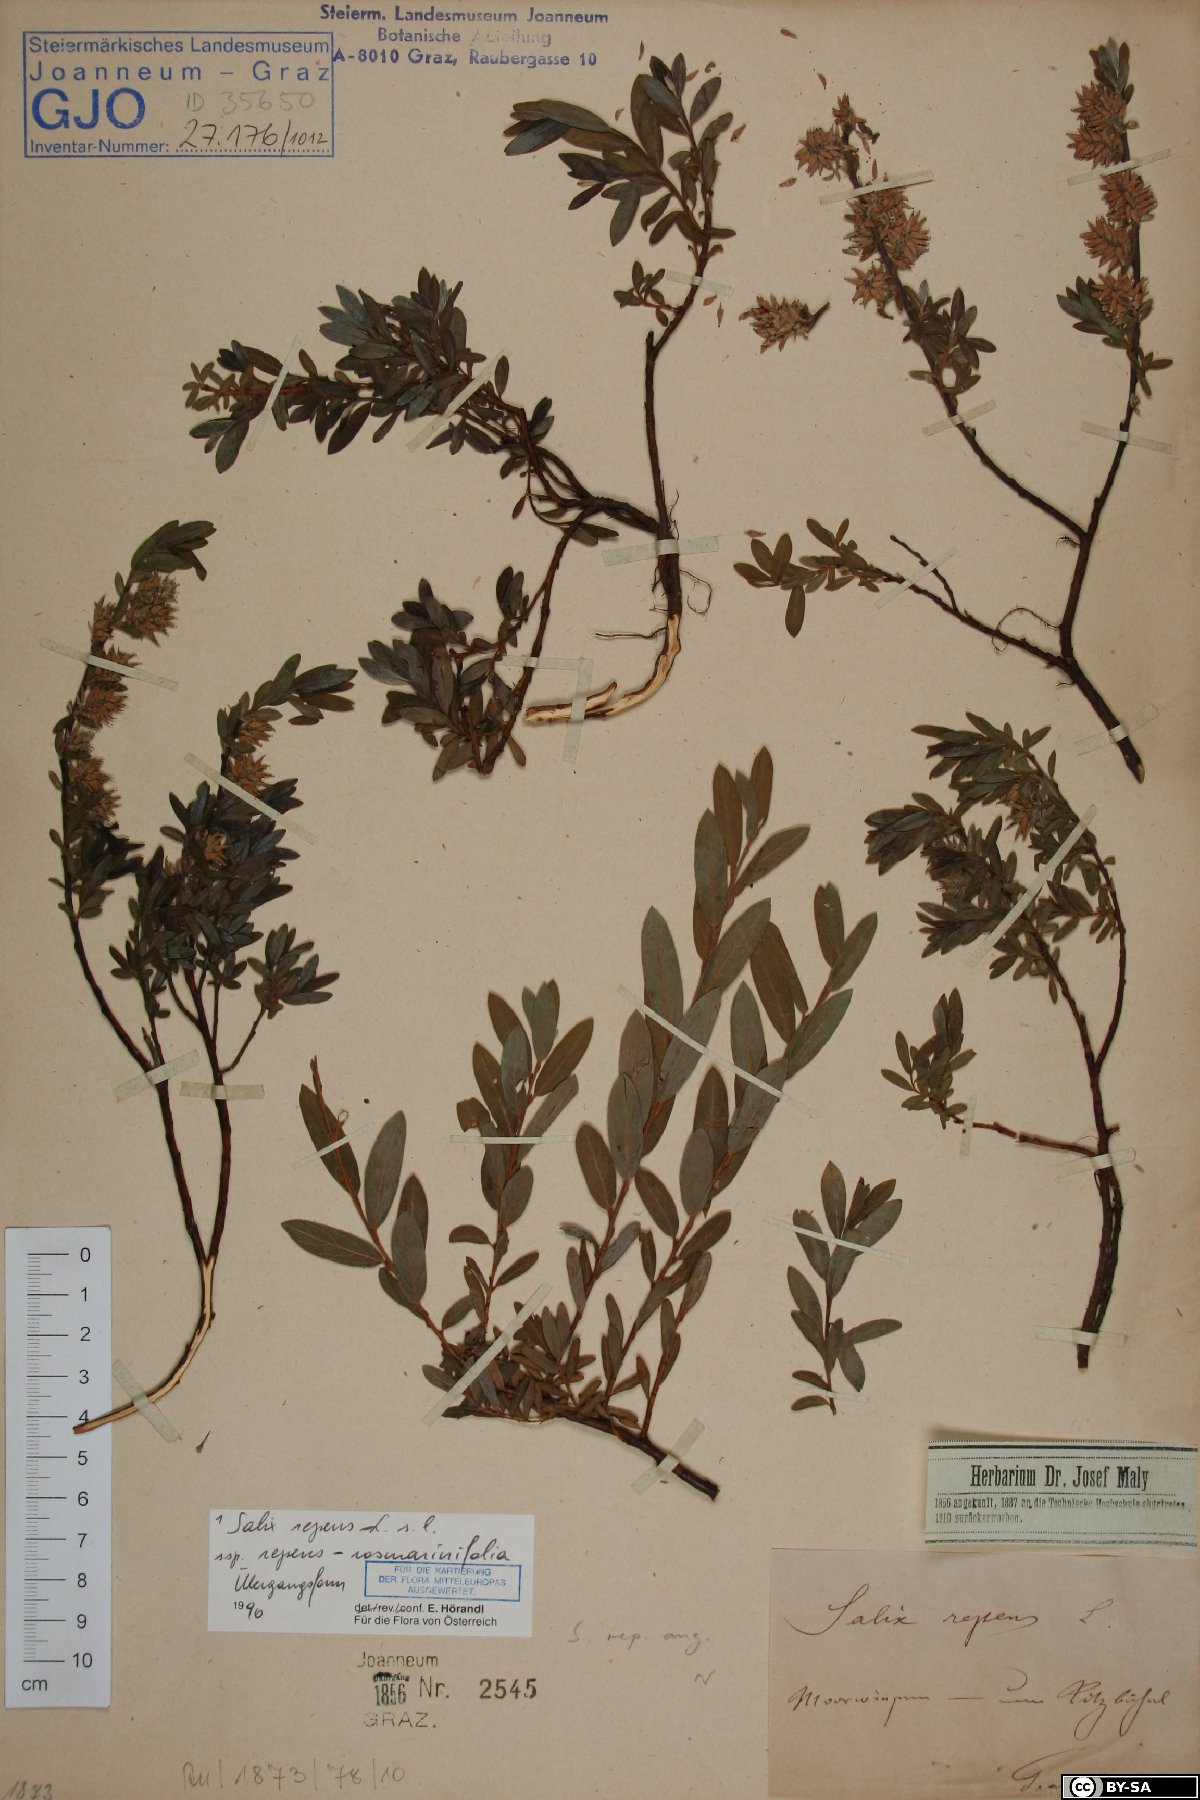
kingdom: Plantae
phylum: Tracheophyta
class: Magnoliopsida
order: Malpighiales
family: Salicaceae
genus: Salix
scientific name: Salix repens
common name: Creeping willow
